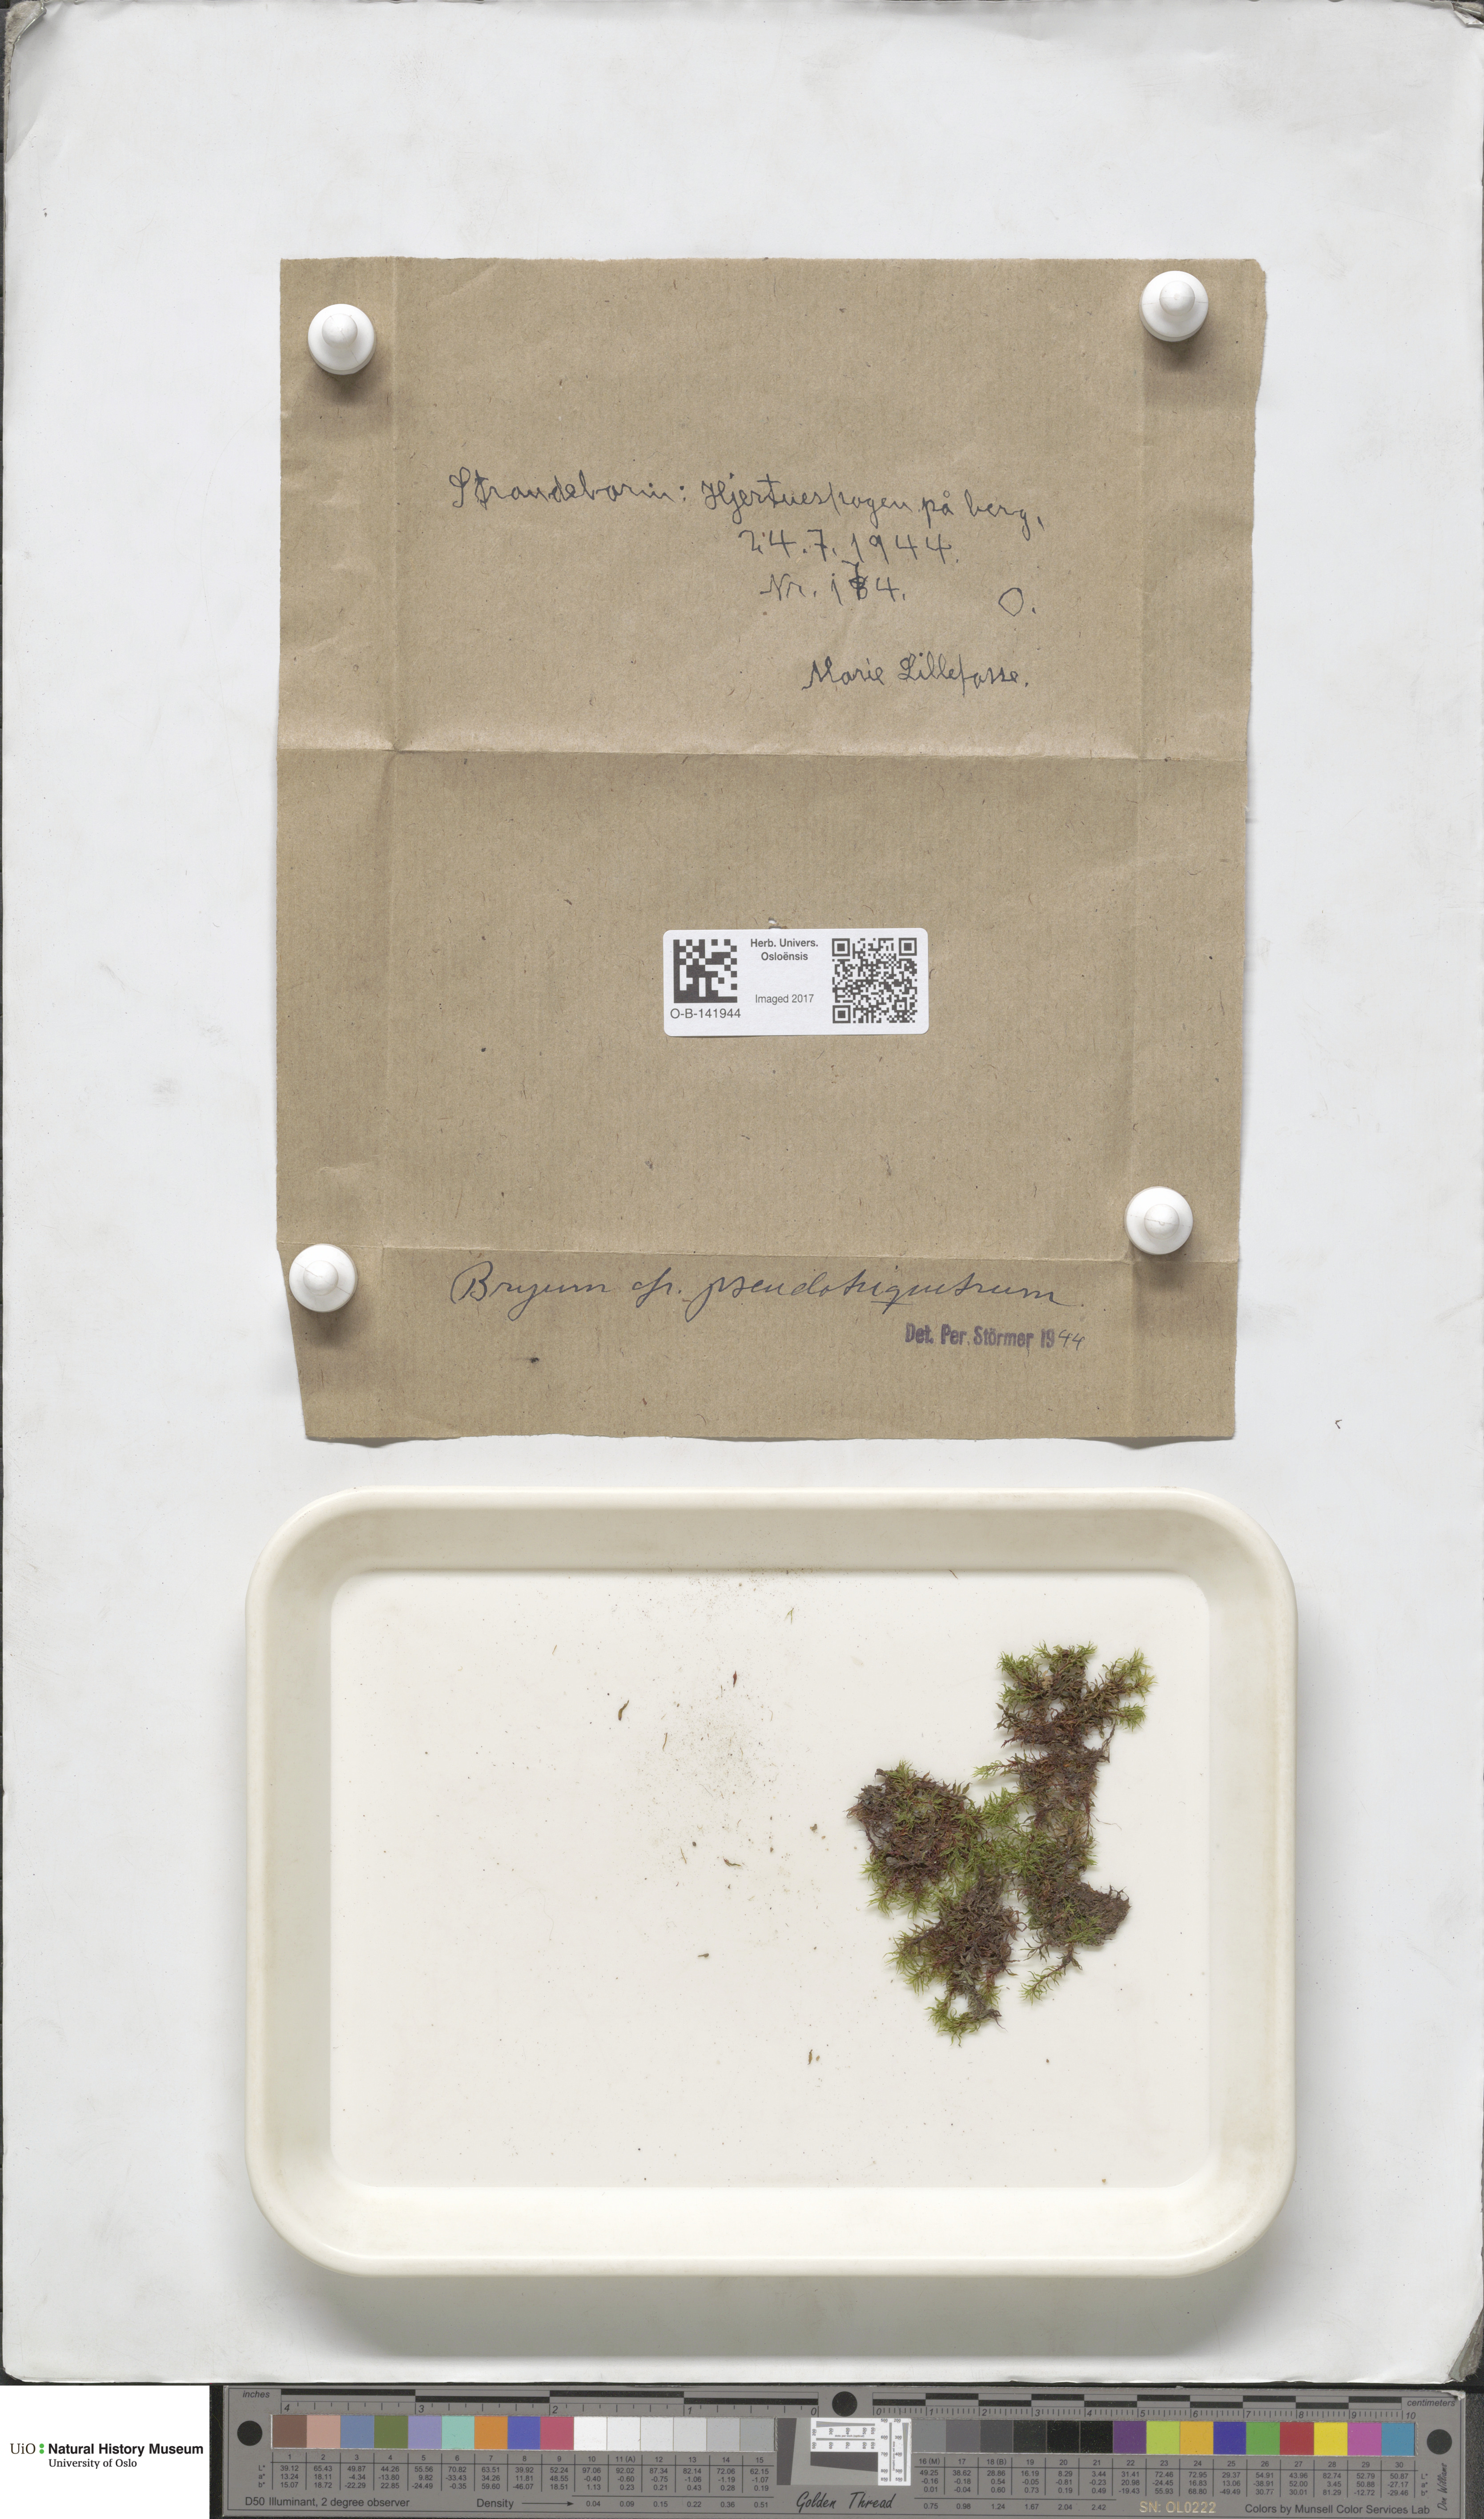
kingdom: Plantae
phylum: Bryophyta
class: Bryopsida
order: Bryales
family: Bryaceae
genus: Ptychostomum
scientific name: Ptychostomum pseudotriquetrum
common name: Long-leaved thread moss
